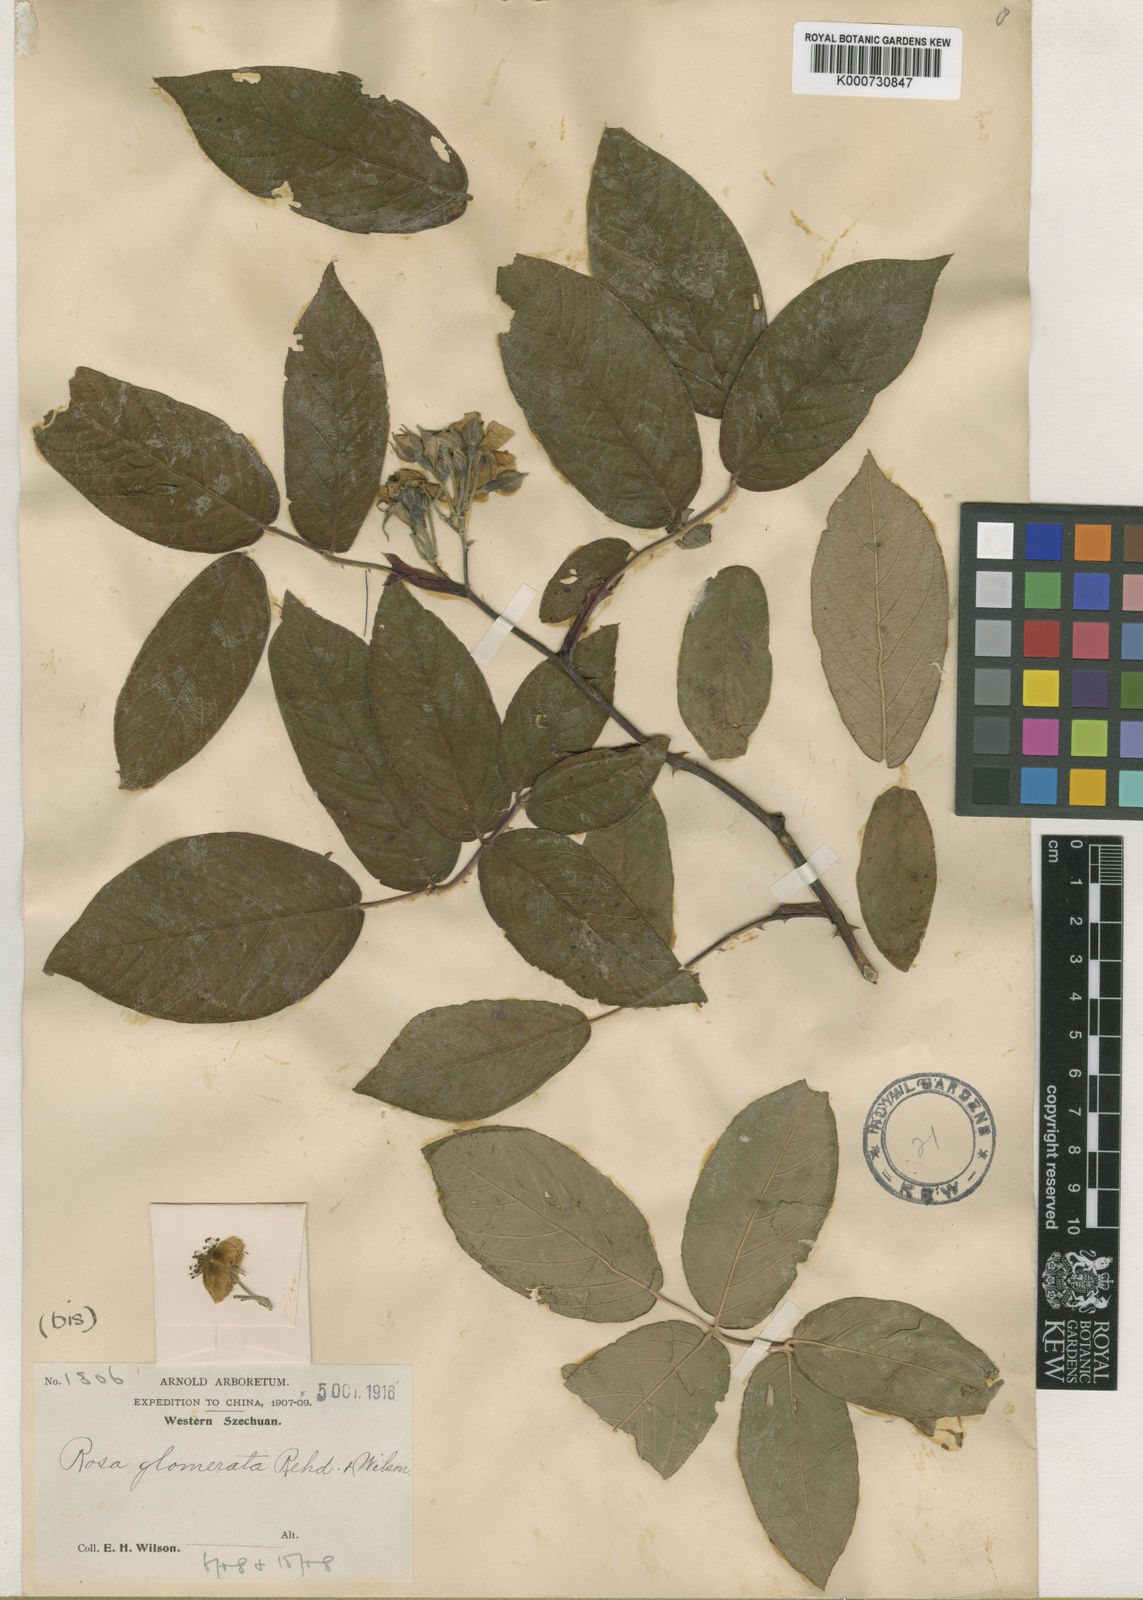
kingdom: Plantae
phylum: Tracheophyta
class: Magnoliopsida
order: Rosales
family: Rosaceae
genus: Rosa
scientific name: Rosa glomerata
